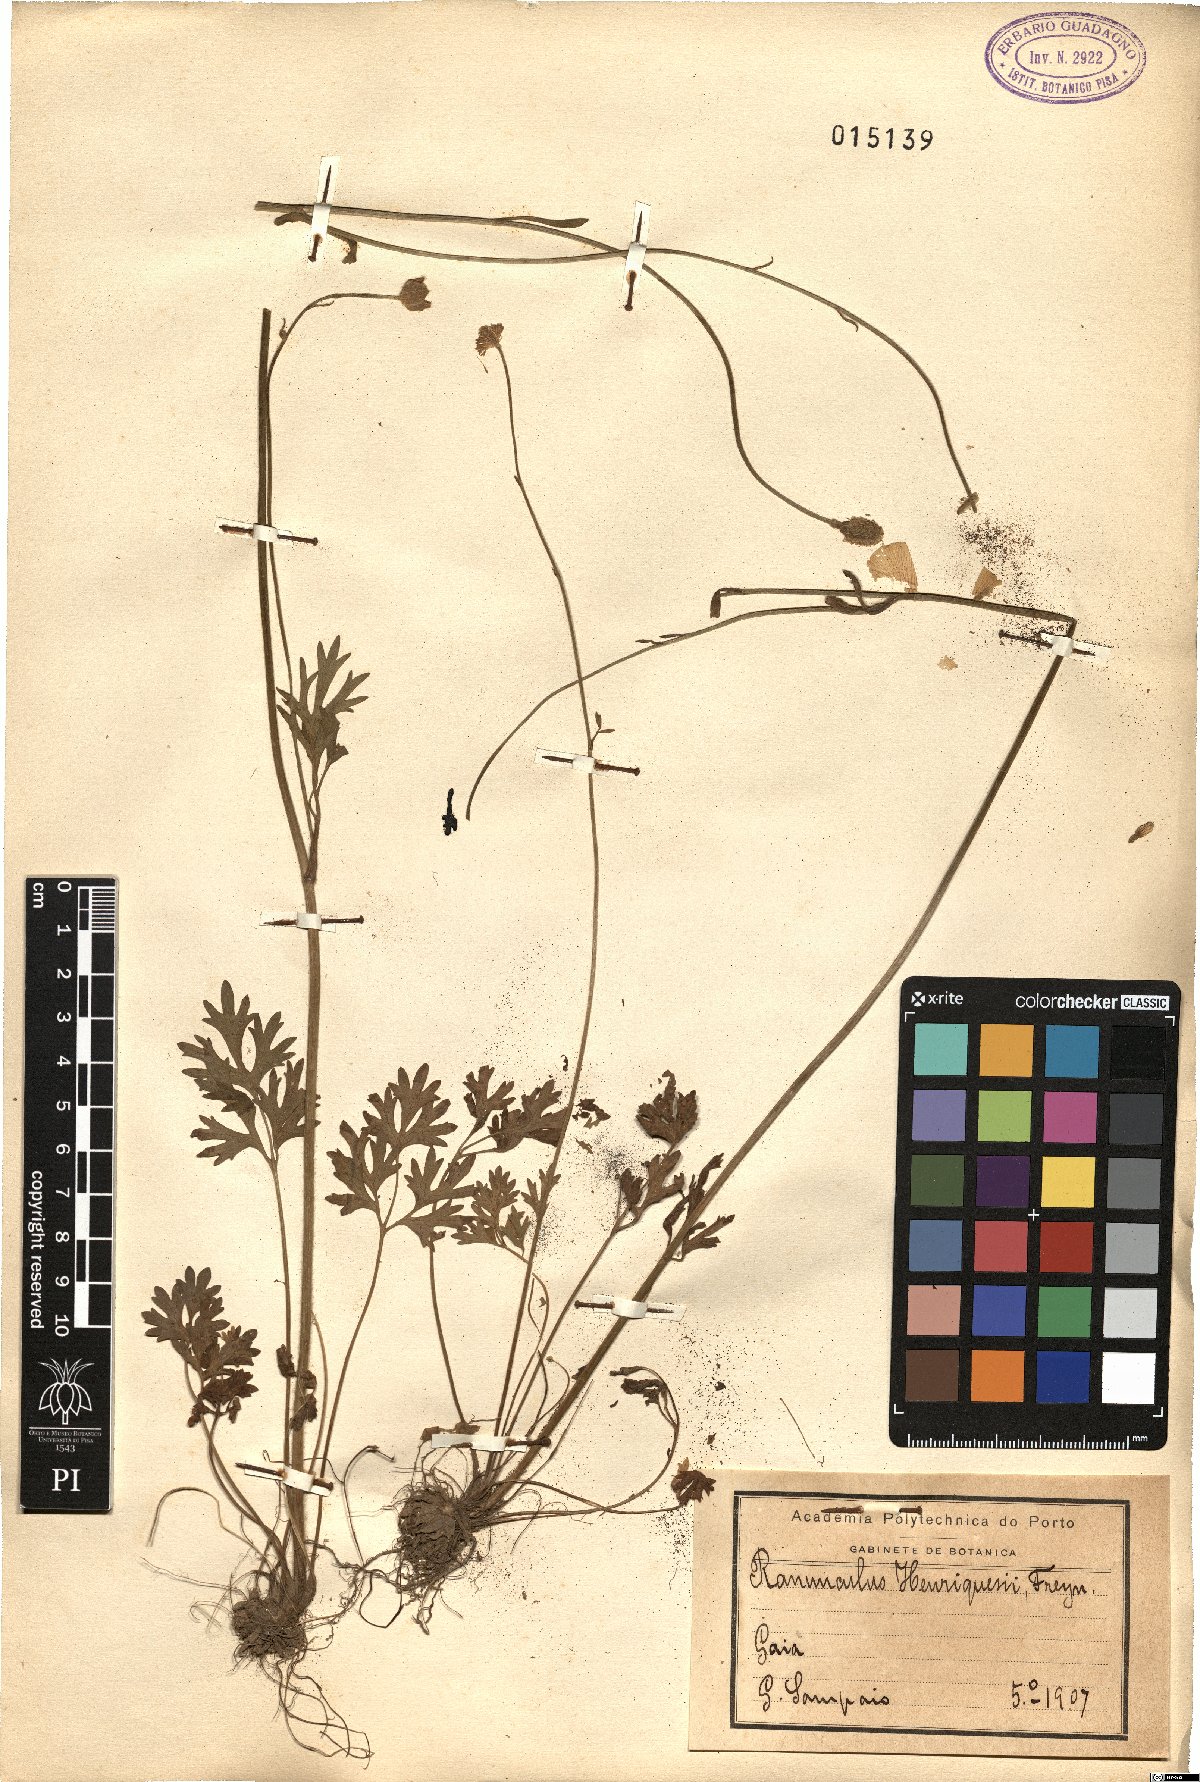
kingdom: Plantae
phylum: Tracheophyta
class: Magnoliopsida
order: Ranunculales
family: Ranunculaceae
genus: Ranunculus
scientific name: Ranunculus gregarius
